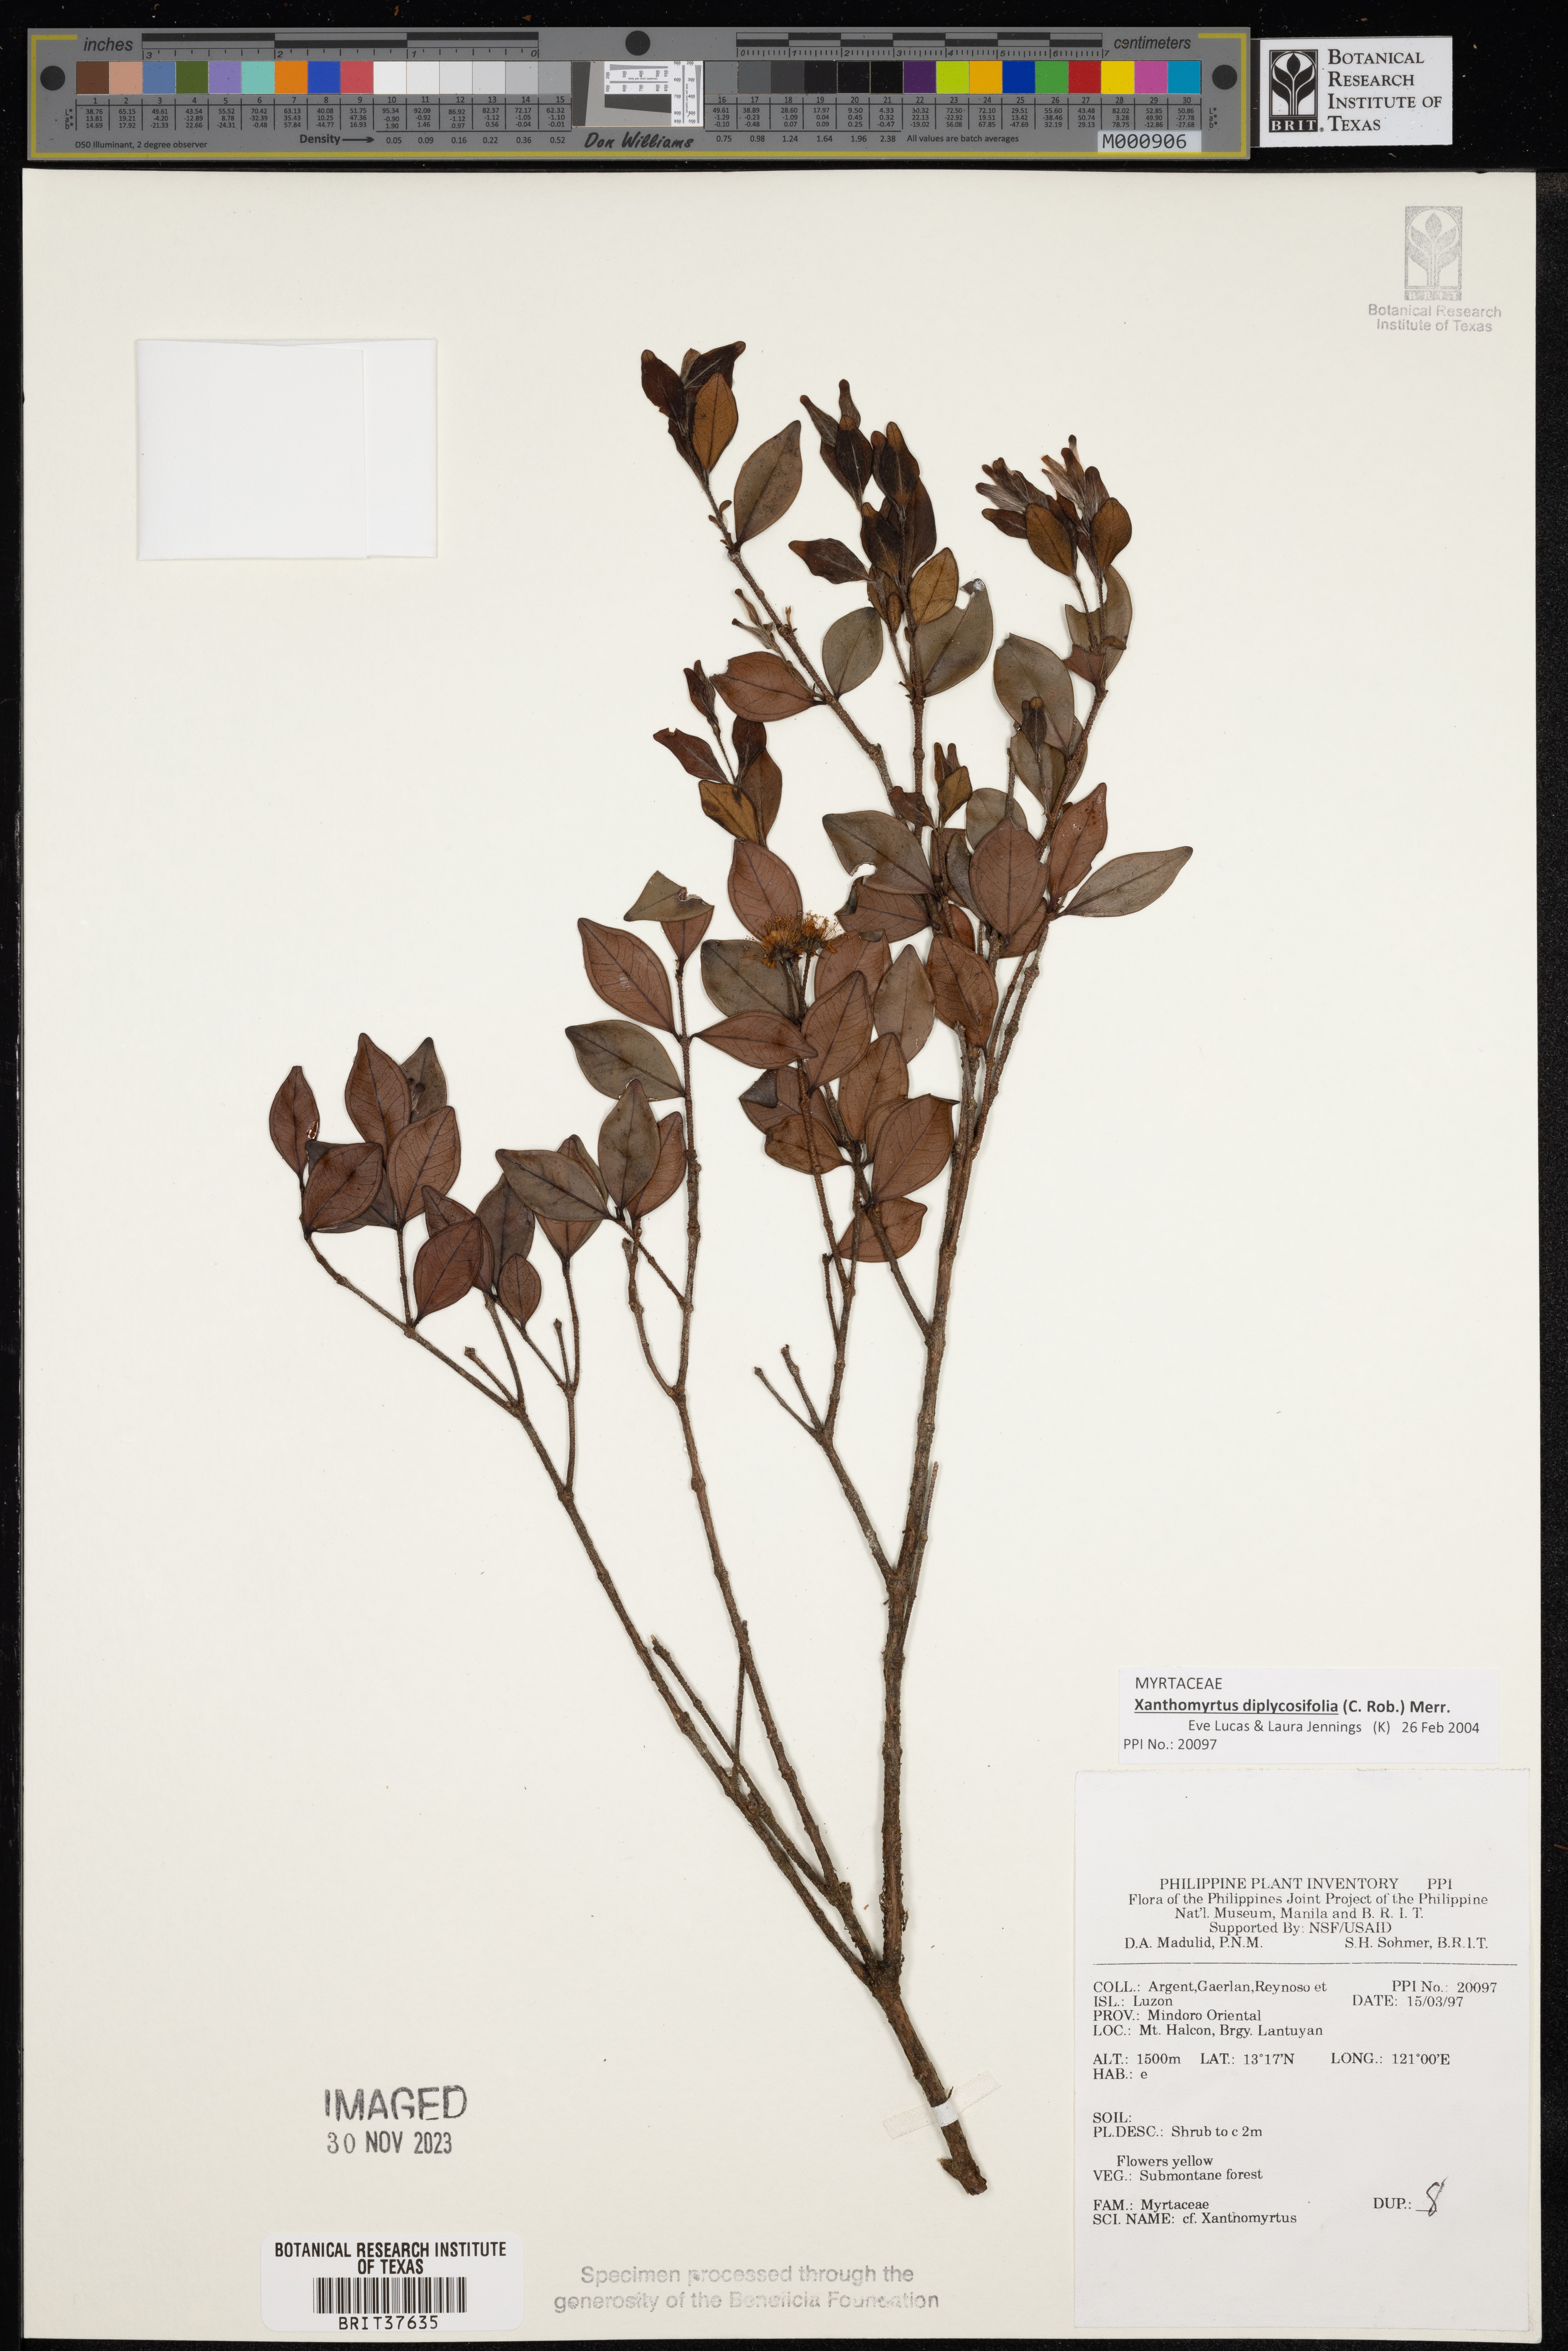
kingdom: Plantae
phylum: Tracheophyta
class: Magnoliopsida
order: Myrtales
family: Myrtaceae
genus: Xanthomyrtus
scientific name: Xanthomyrtus
